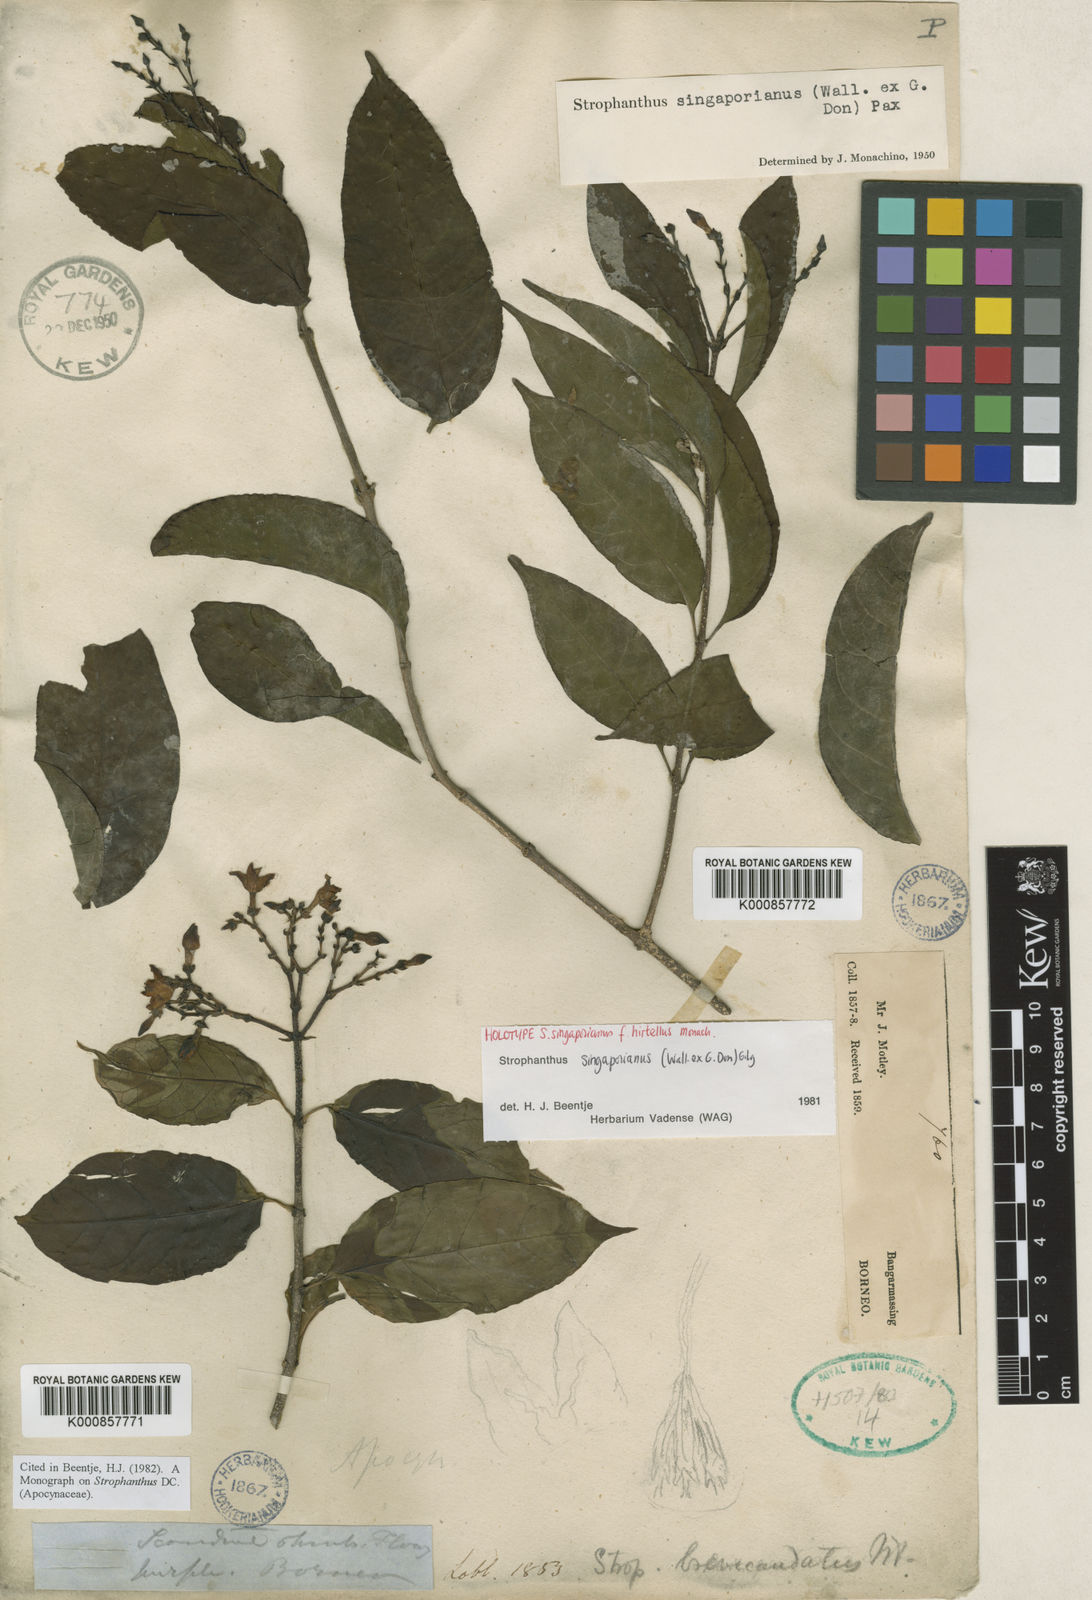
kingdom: Plantae
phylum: Tracheophyta
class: Magnoliopsida
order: Gentianales
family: Apocynaceae
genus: Strophanthus
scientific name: Strophanthus singaporianus
